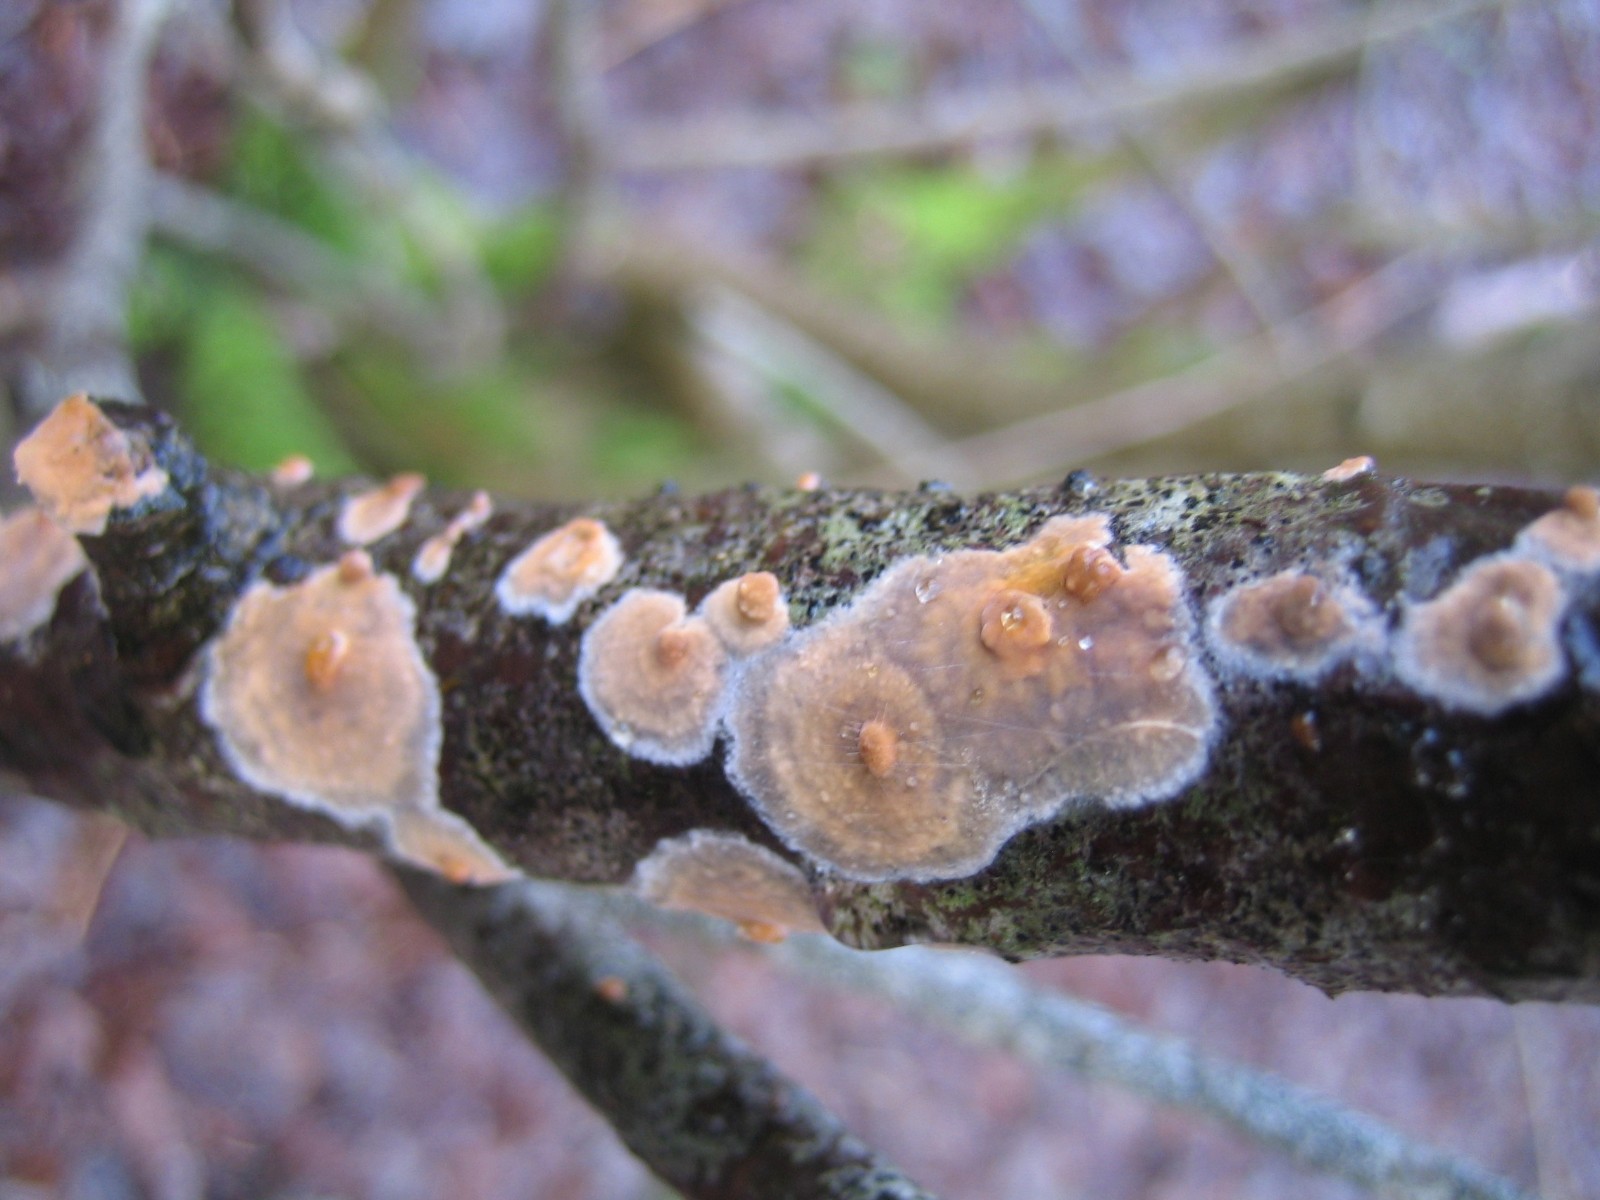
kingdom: Fungi
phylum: Basidiomycota
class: Agaricomycetes
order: Corticiales
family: Corticiaceae
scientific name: Corticiaceae
